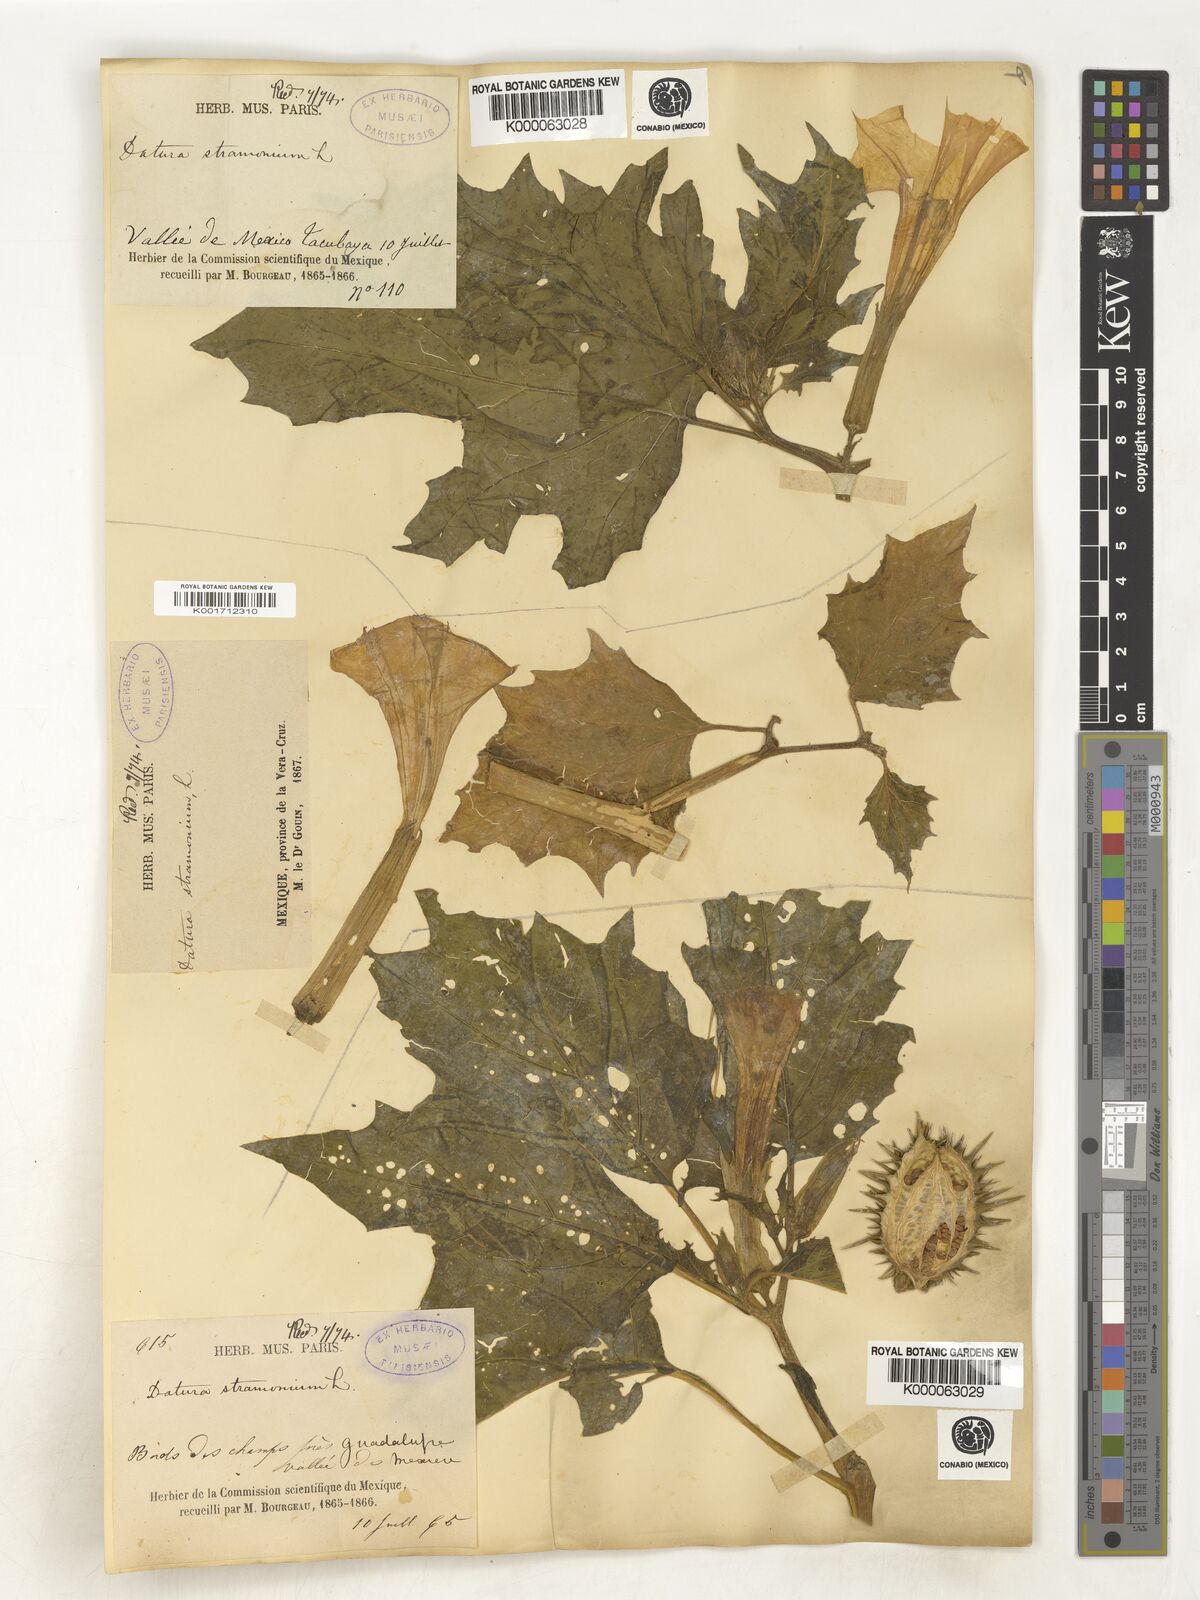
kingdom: Plantae
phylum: Tracheophyta
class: Magnoliopsida
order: Solanales
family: Solanaceae
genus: Datura
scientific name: Datura stramonium
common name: Thorn-apple
